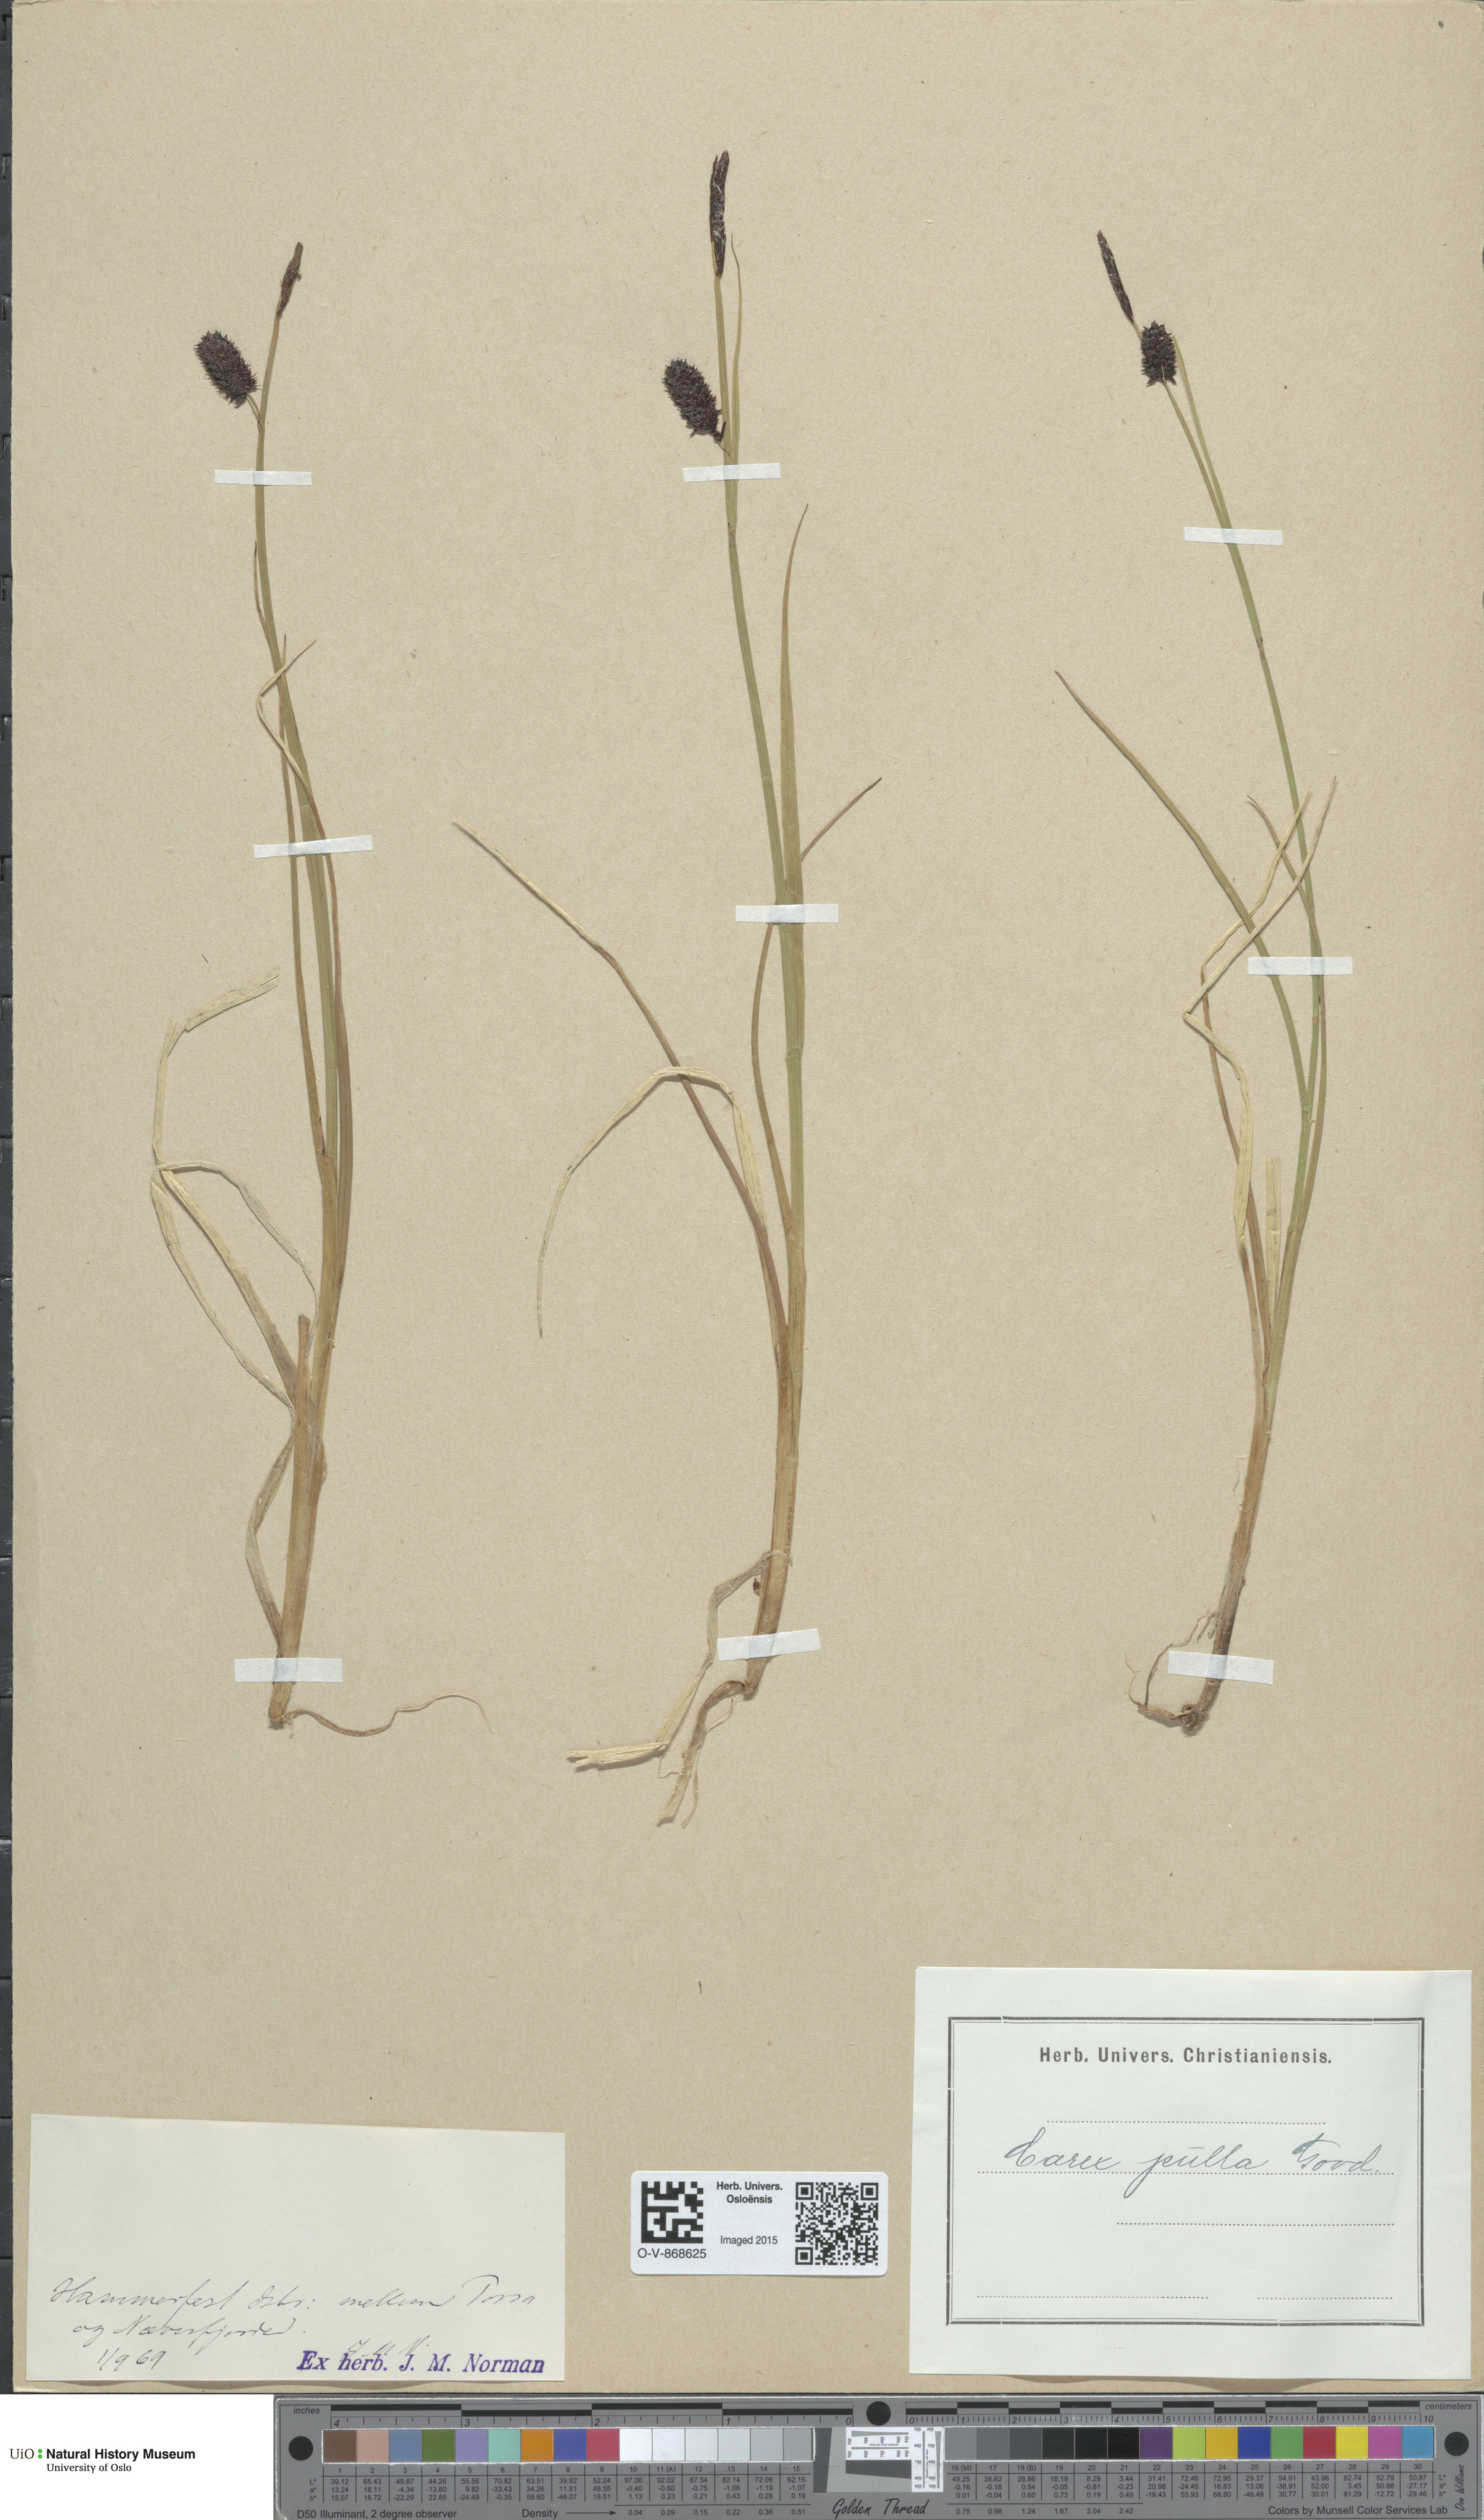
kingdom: Plantae
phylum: Tracheophyta
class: Liliopsida
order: Poales
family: Cyperaceae
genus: Carex
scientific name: Carex saxatilis
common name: Russet sedge
